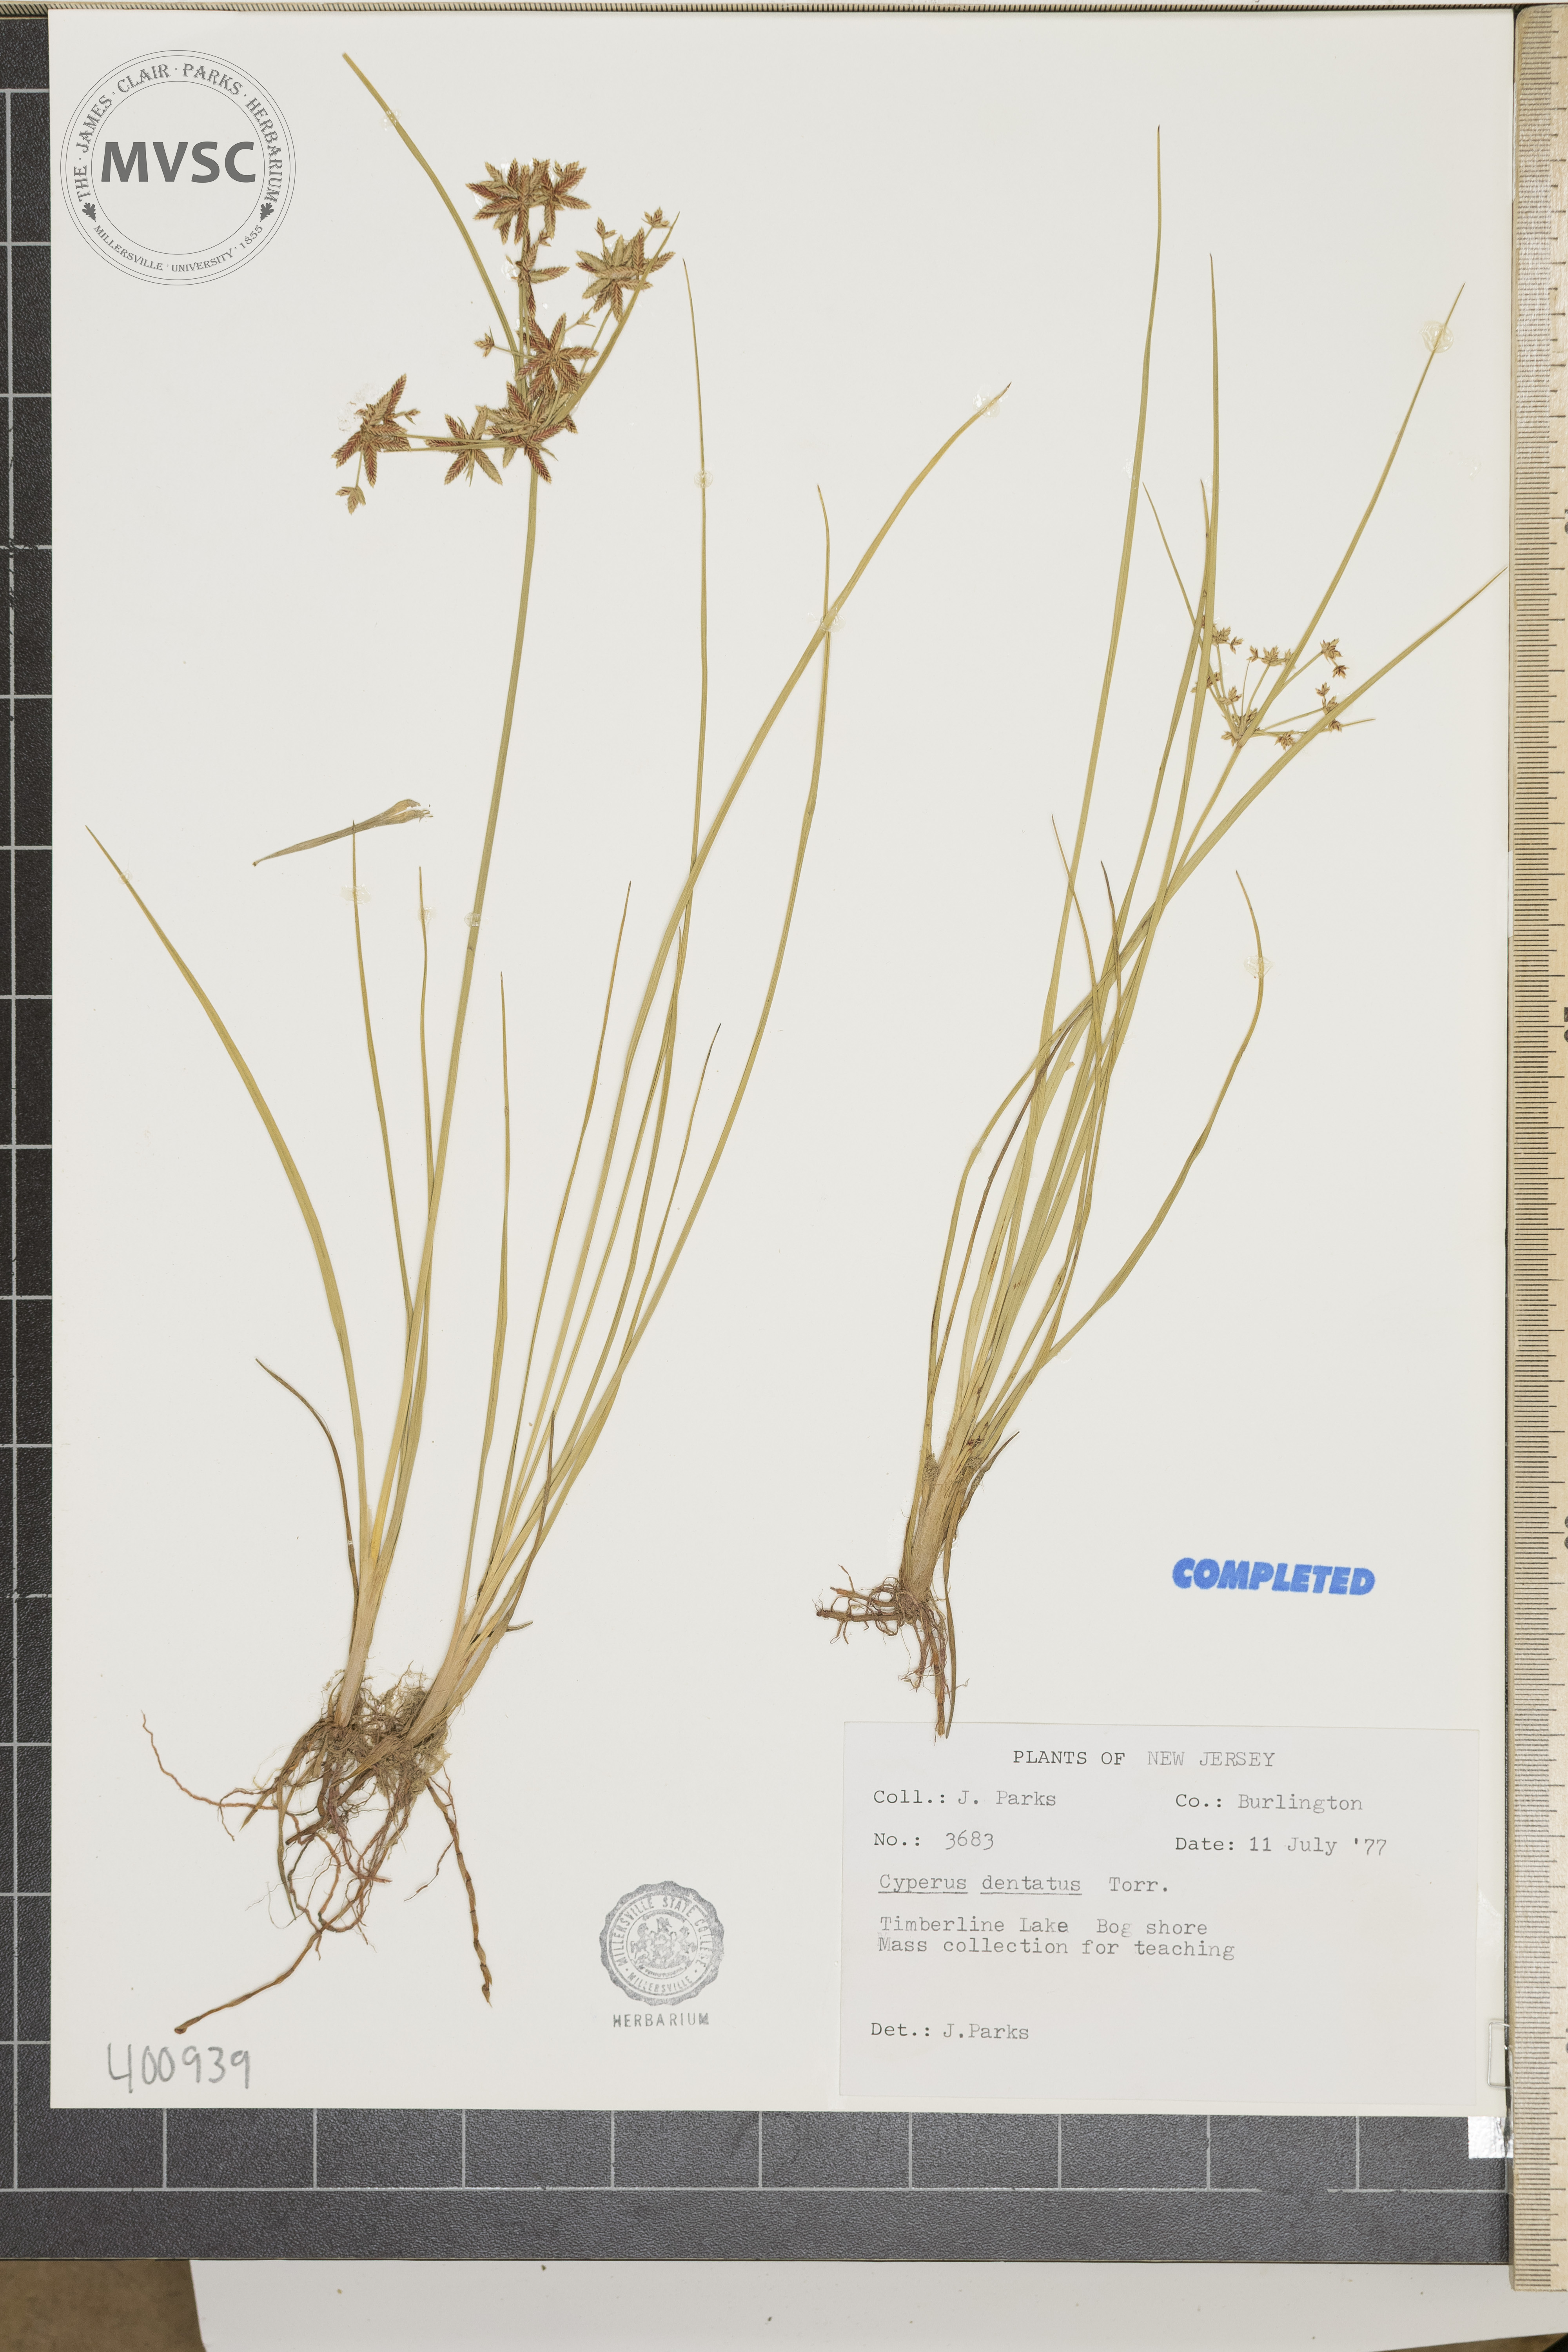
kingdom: Plantae
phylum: Tracheophyta
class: Liliopsida
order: Poales
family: Cyperaceae
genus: Cyperus
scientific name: Cyperus dentatus
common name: sedge
